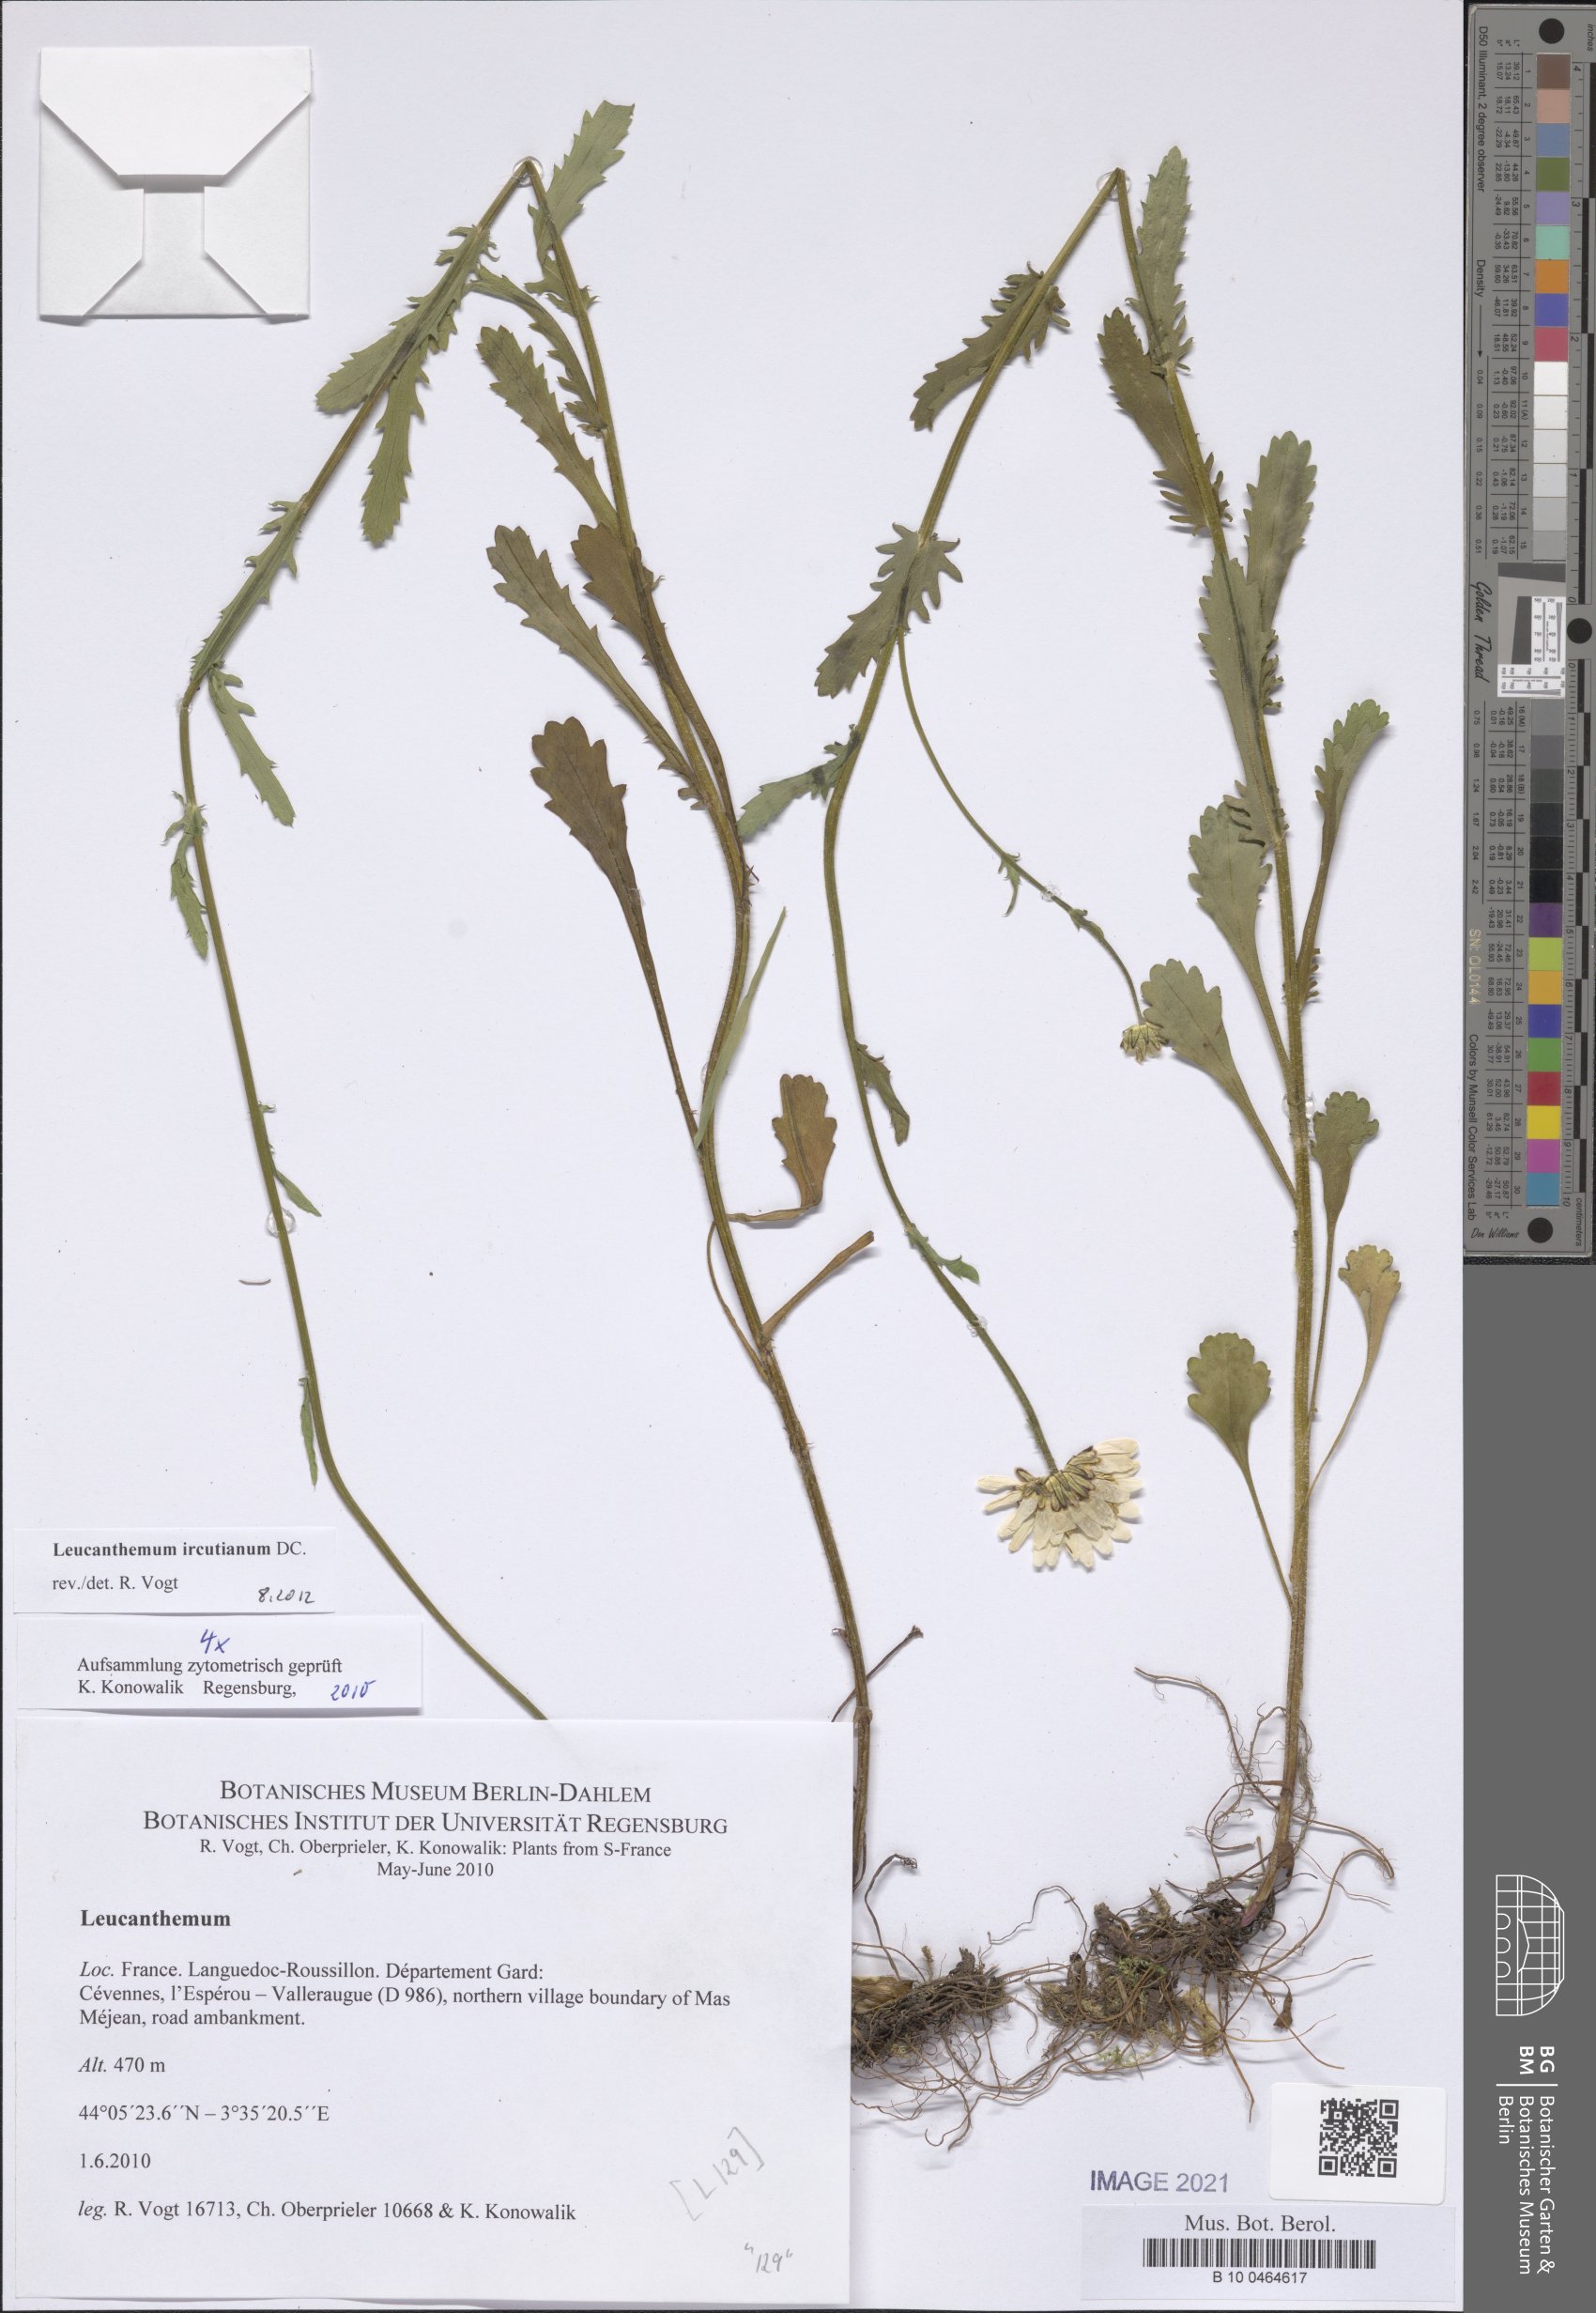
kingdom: Plantae
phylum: Tracheophyta
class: Magnoliopsida
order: Asterales
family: Asteraceae
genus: Leucanthemum
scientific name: Leucanthemum ircutianum
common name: Daisy
